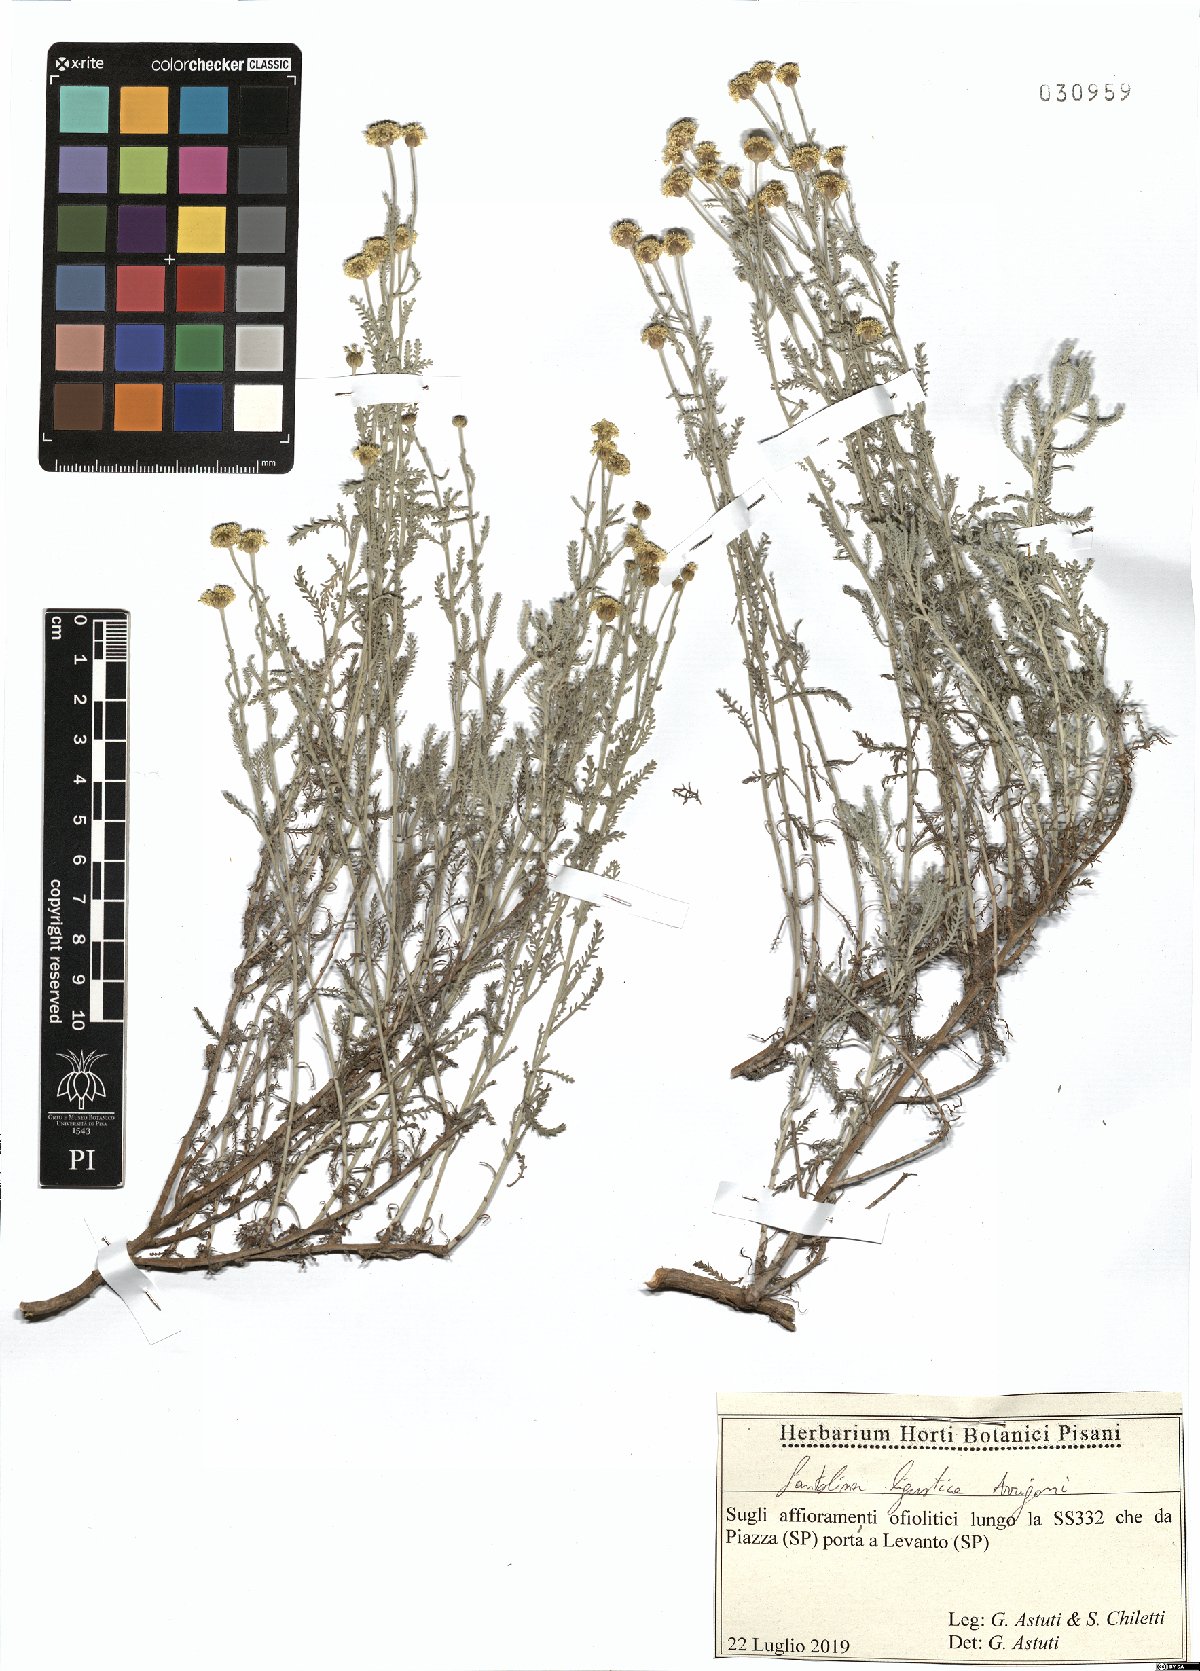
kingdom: Plantae
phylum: Tracheophyta
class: Magnoliopsida
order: Asterales
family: Asteraceae
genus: Santolina
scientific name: Santolina ligustica
